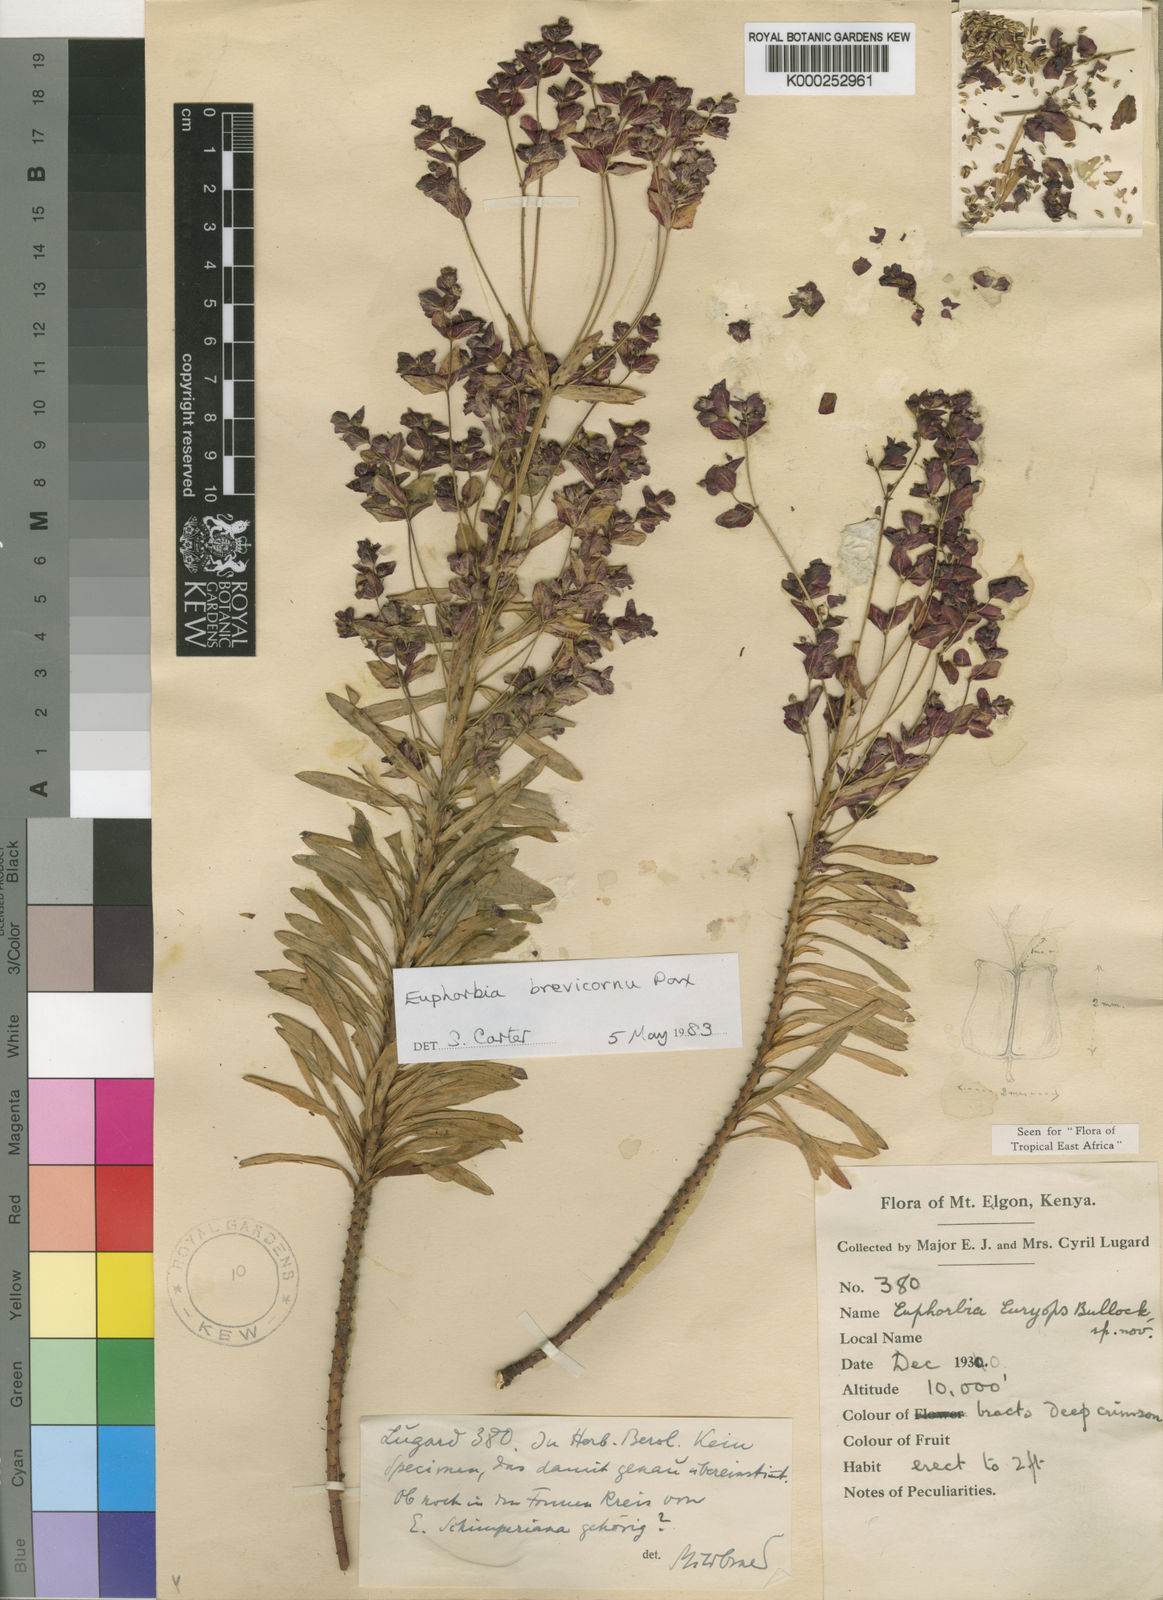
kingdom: Plantae
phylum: Tracheophyta
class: Magnoliopsida
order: Malpighiales
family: Euphorbiaceae
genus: Euphorbia
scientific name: Euphorbia brevicornu
